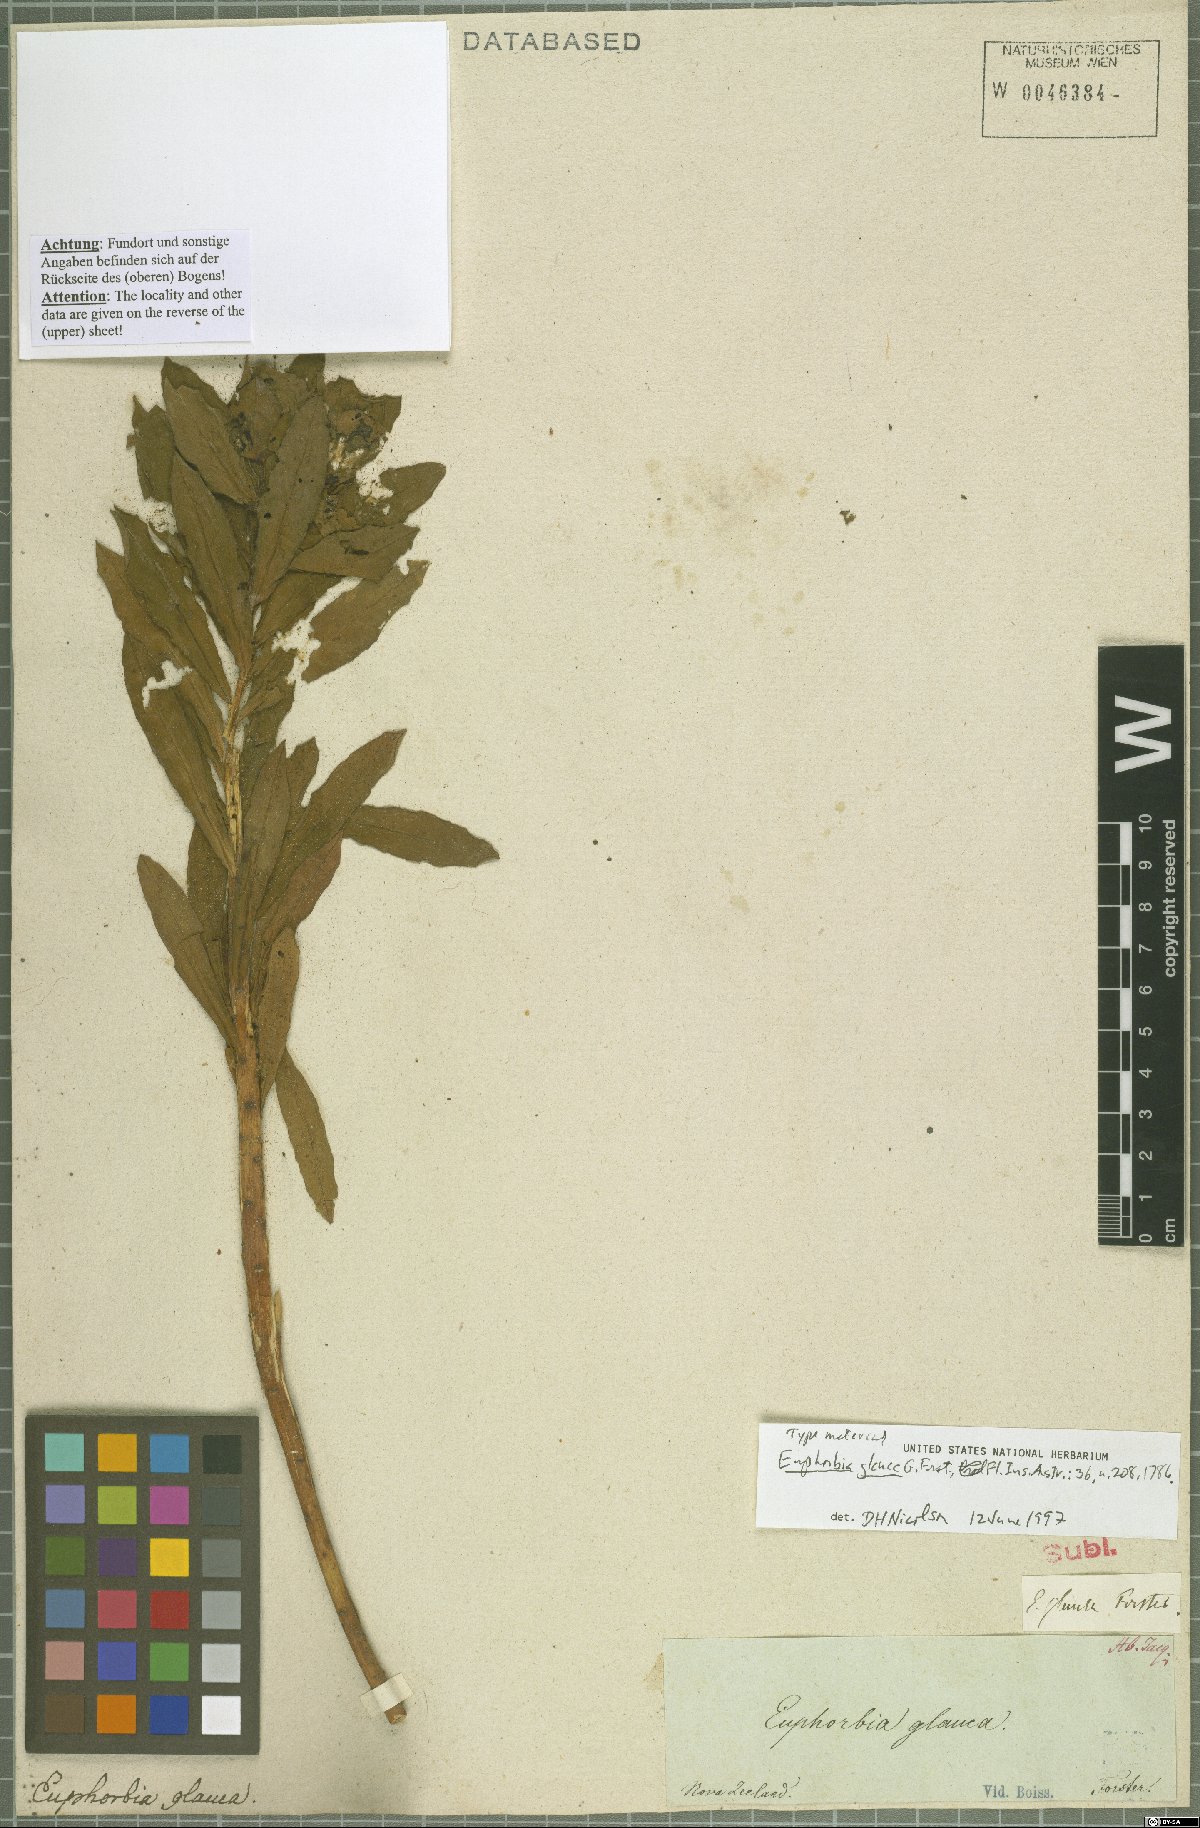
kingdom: Plantae
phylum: Tracheophyta
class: Magnoliopsida
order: Malpighiales
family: Euphorbiaceae
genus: Euphorbia
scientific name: Euphorbia glauca
